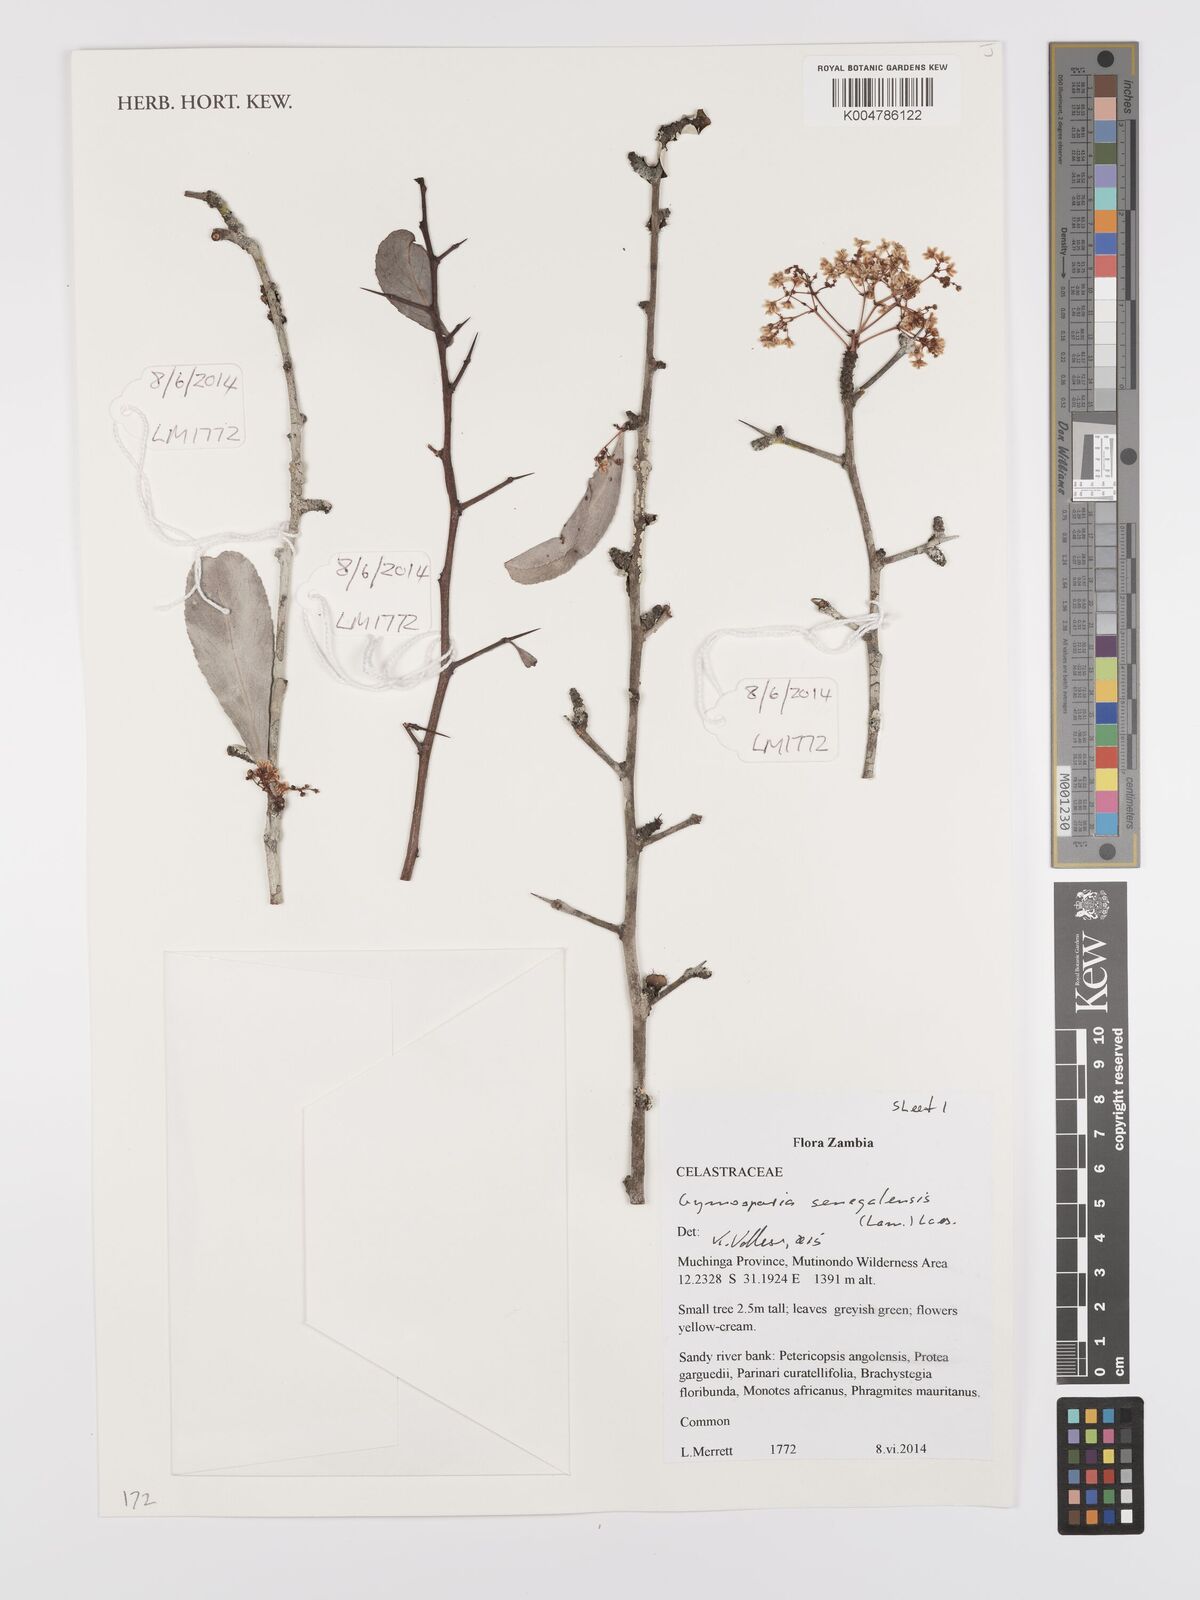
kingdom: Plantae
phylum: Tracheophyta
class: Magnoliopsida
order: Celastrales
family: Celastraceae
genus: Gymnosporia
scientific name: Gymnosporia senegalensis
